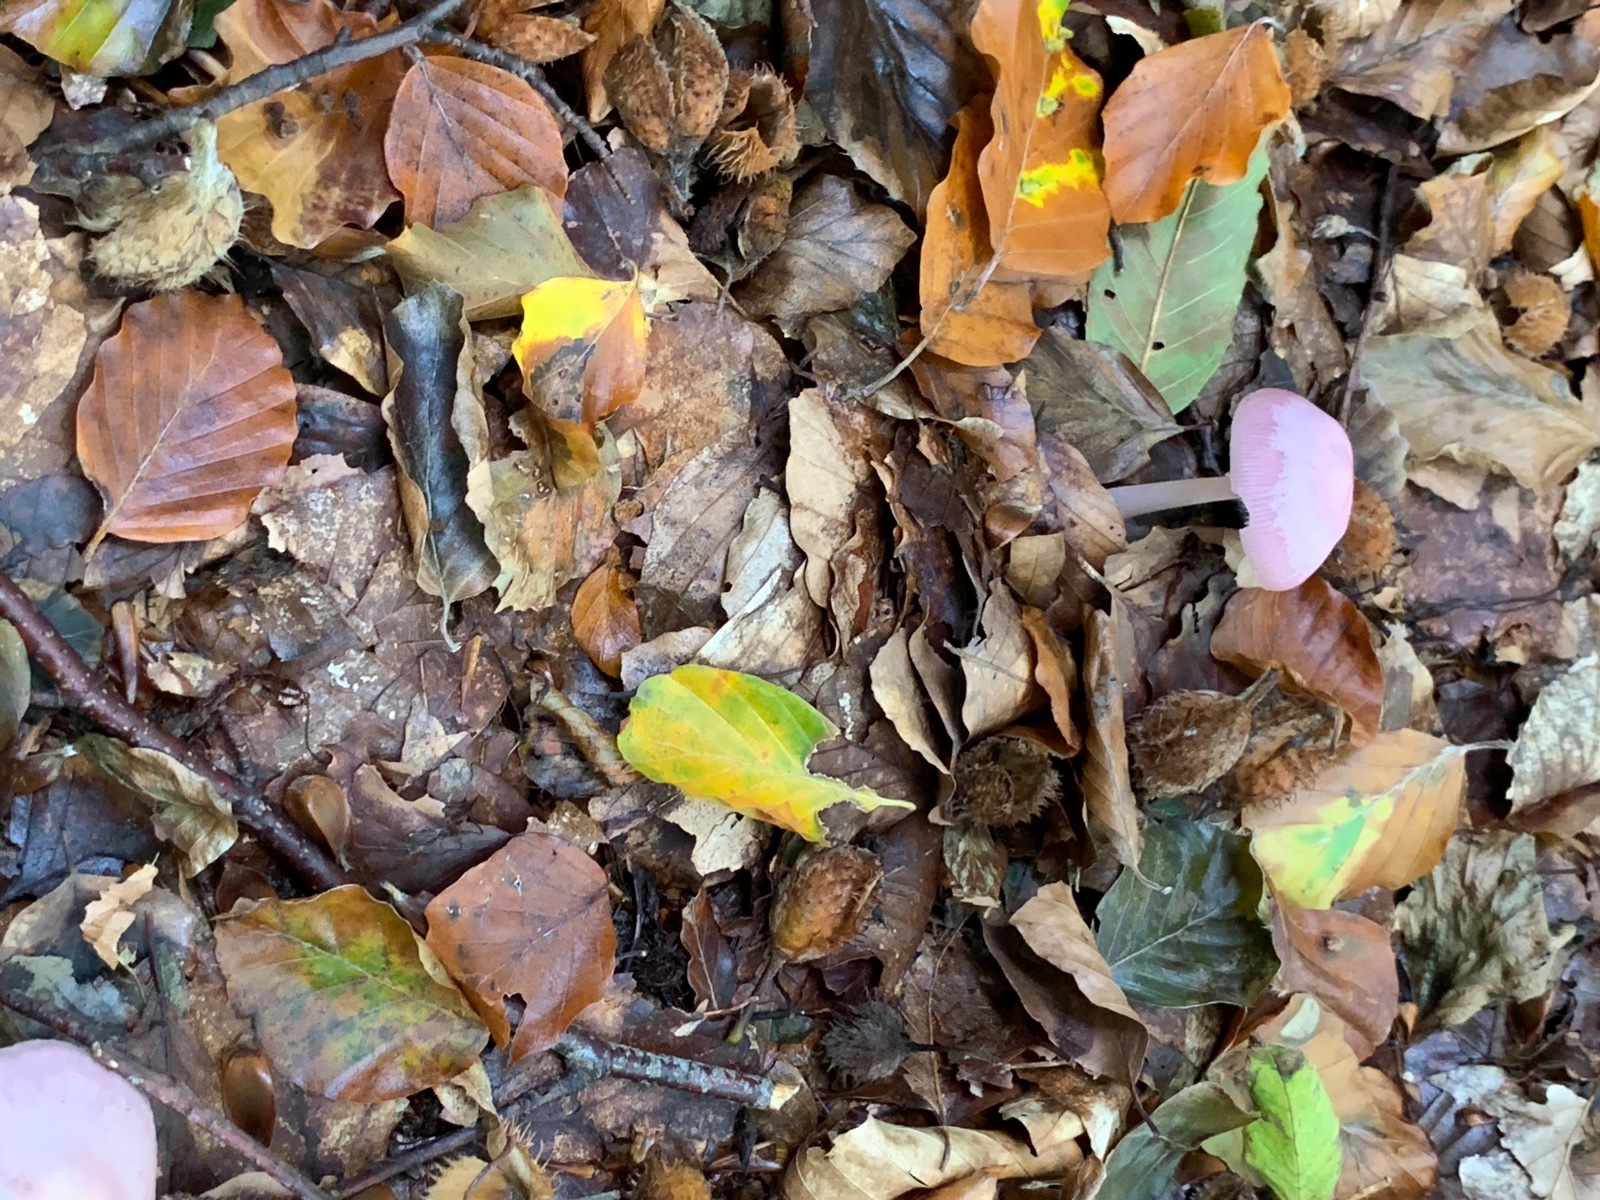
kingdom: Fungi
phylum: Basidiomycota
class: Agaricomycetes
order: Agaricales
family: Mycenaceae
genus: Mycena
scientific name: Mycena rosea
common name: rosa huesvamp
